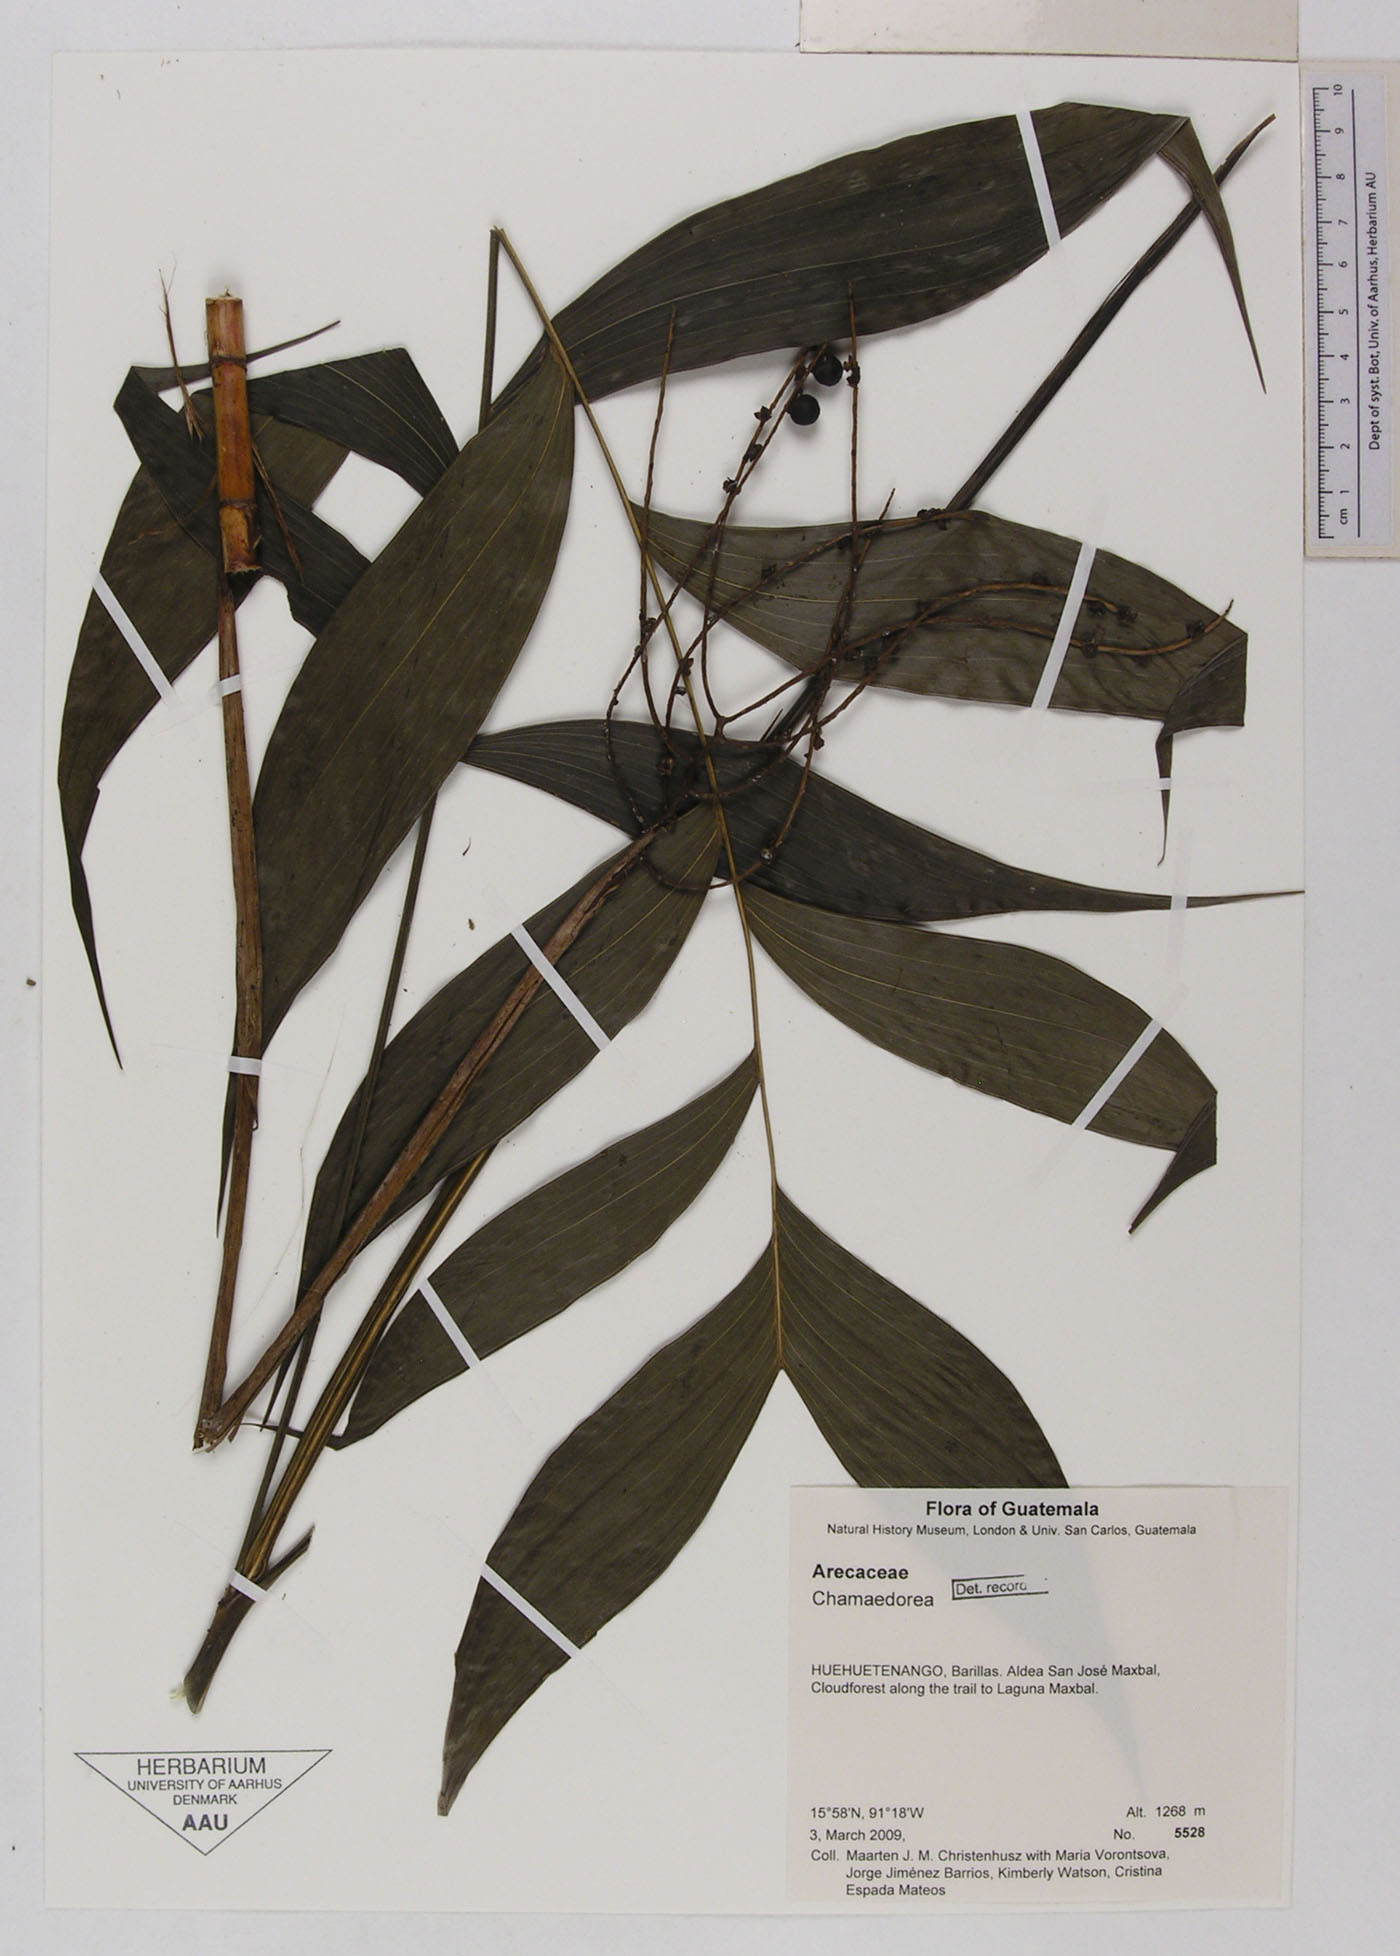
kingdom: Plantae
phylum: Tracheophyta
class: Liliopsida
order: Arecales
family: Arecaceae
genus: Chamaedorea
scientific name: Chamaedorea
